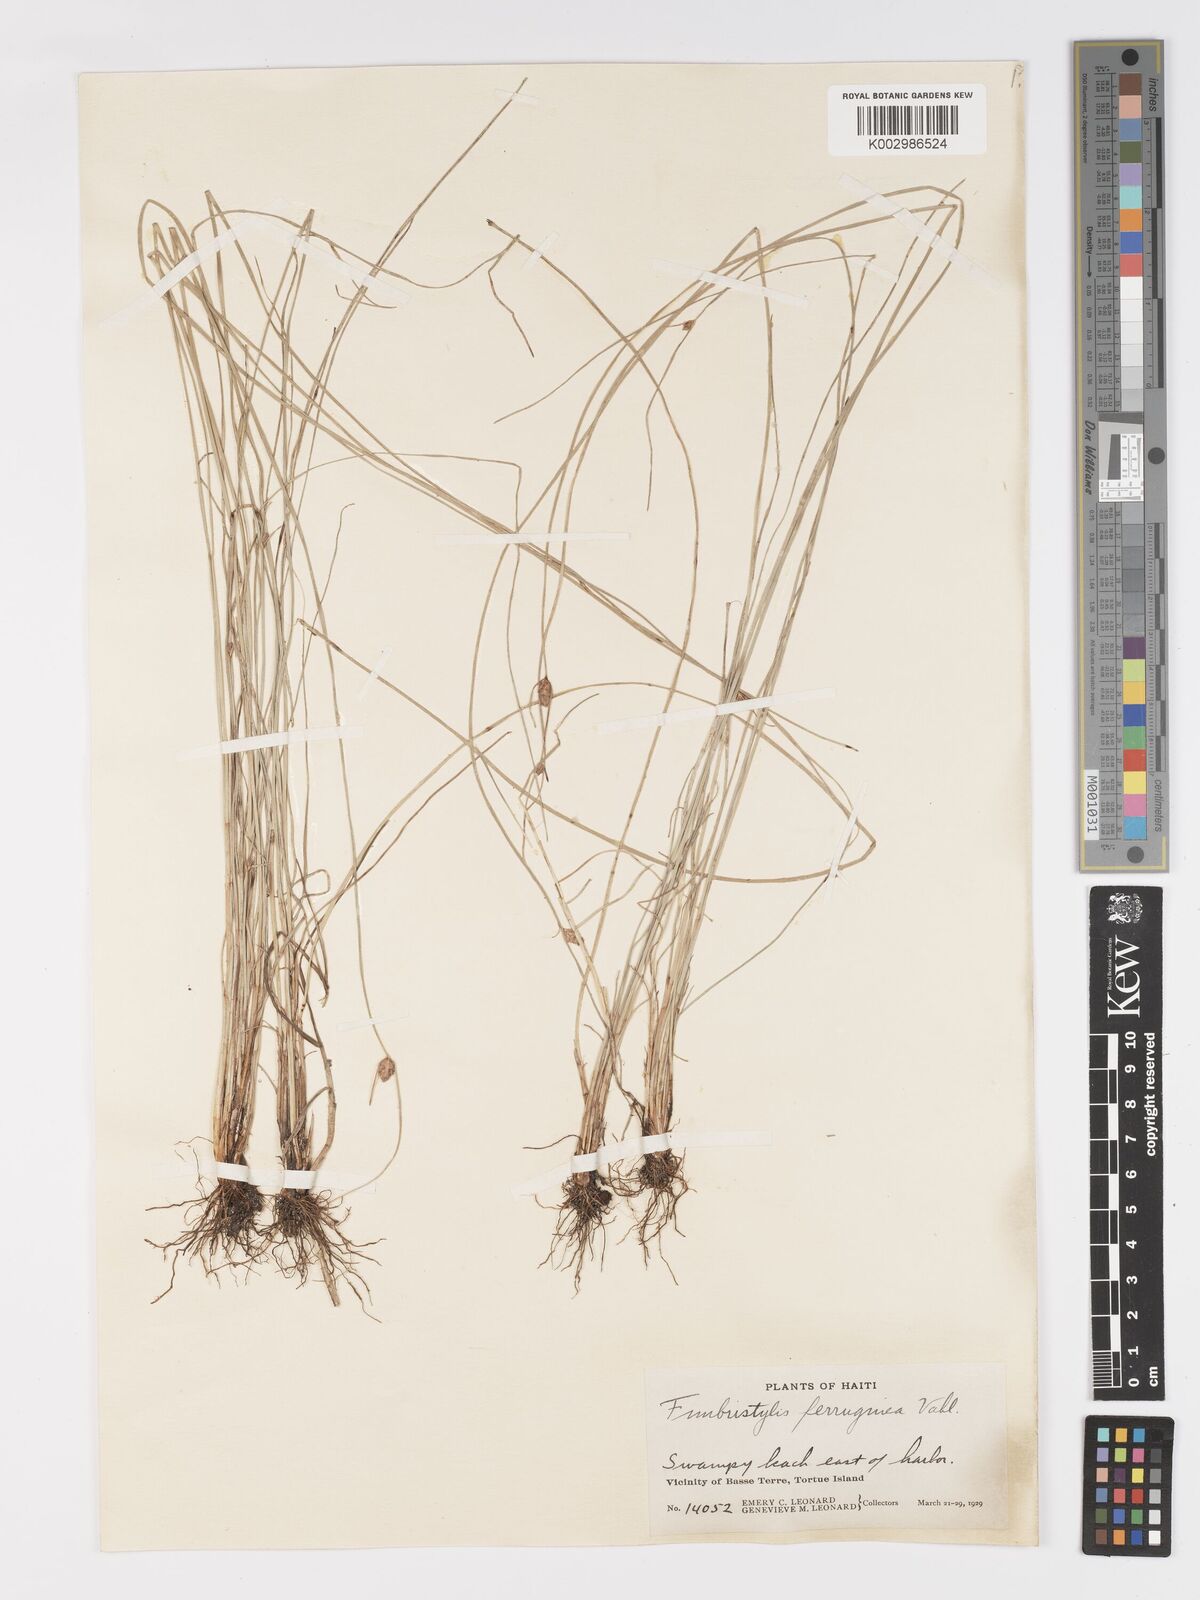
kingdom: Plantae
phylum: Tracheophyta
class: Liliopsida
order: Poales
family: Cyperaceae
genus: Fimbristylis
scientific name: Fimbristylis ferruginea
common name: West indian fimbry
